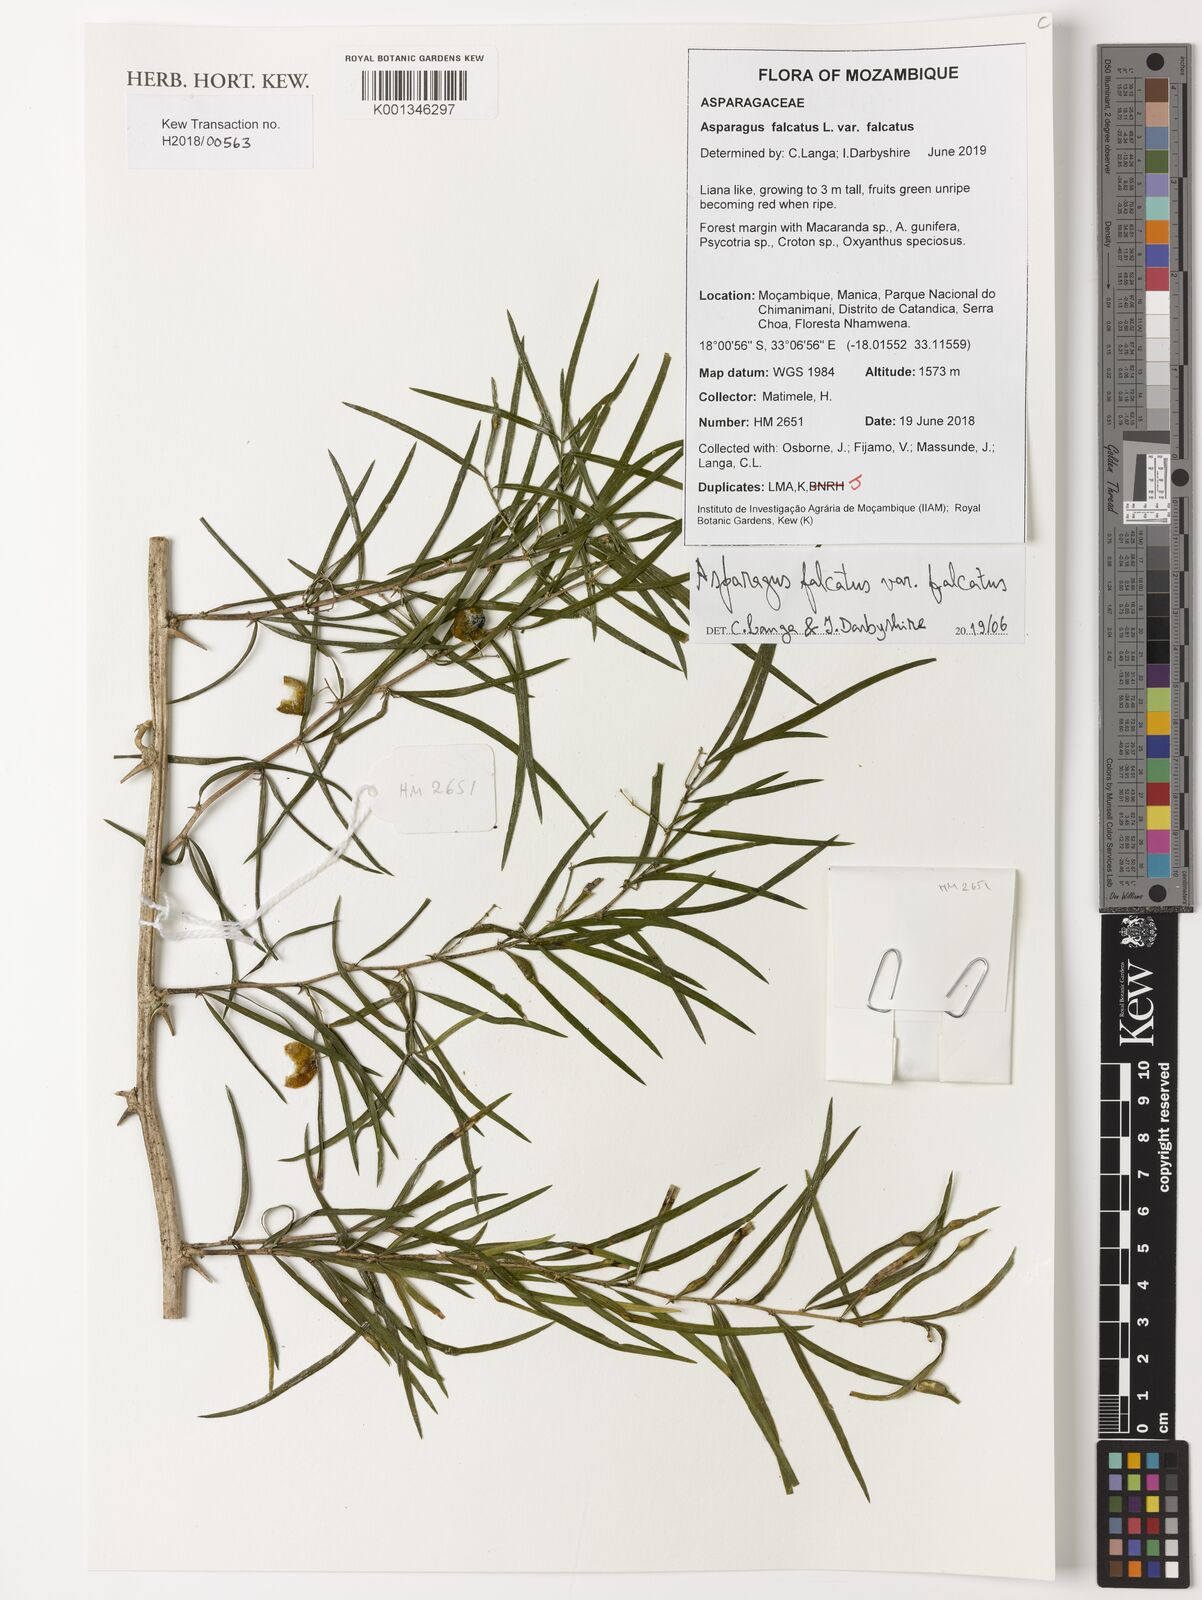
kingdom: Plantae
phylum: Tracheophyta
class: Liliopsida
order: Asparagales
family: Asparagaceae
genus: Asparagus
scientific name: Asparagus falcatus
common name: Asparagus
